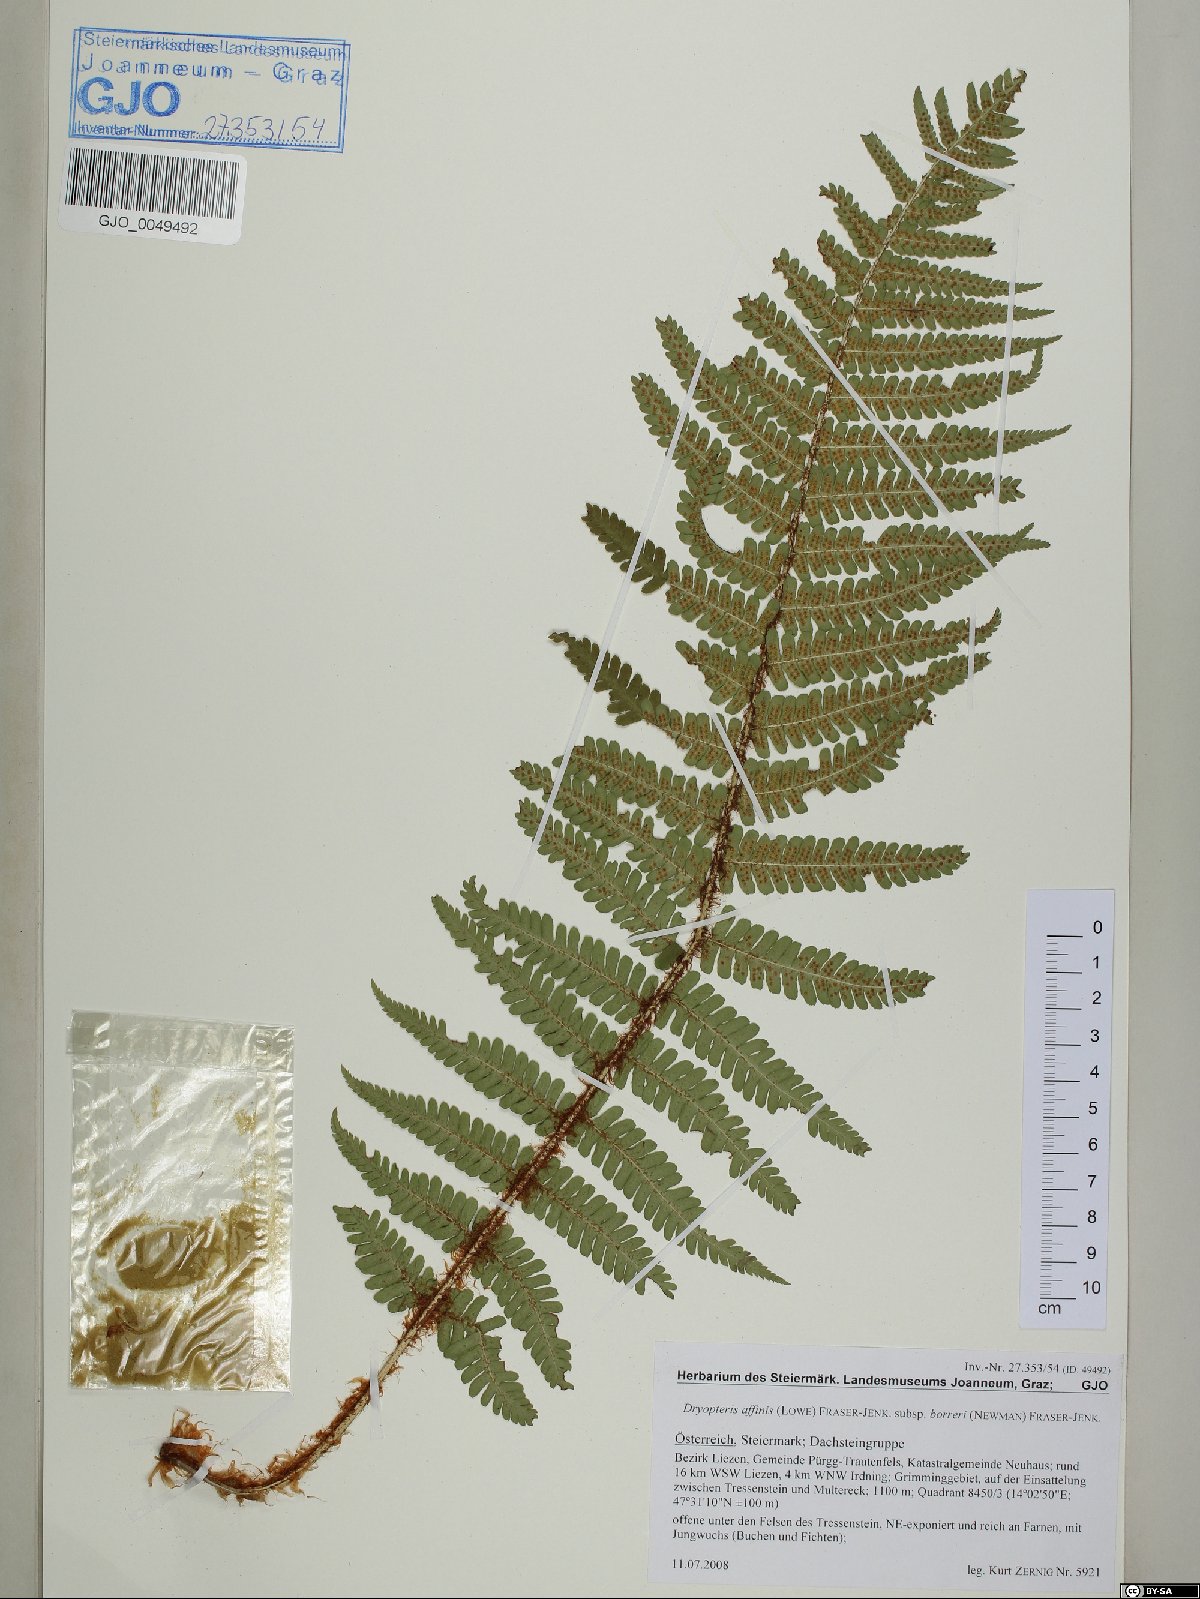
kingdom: Plantae
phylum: Tracheophyta
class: Polypodiopsida
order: Polypodiales
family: Dryopteridaceae
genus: Dryopteris
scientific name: Dryopteris borreri
